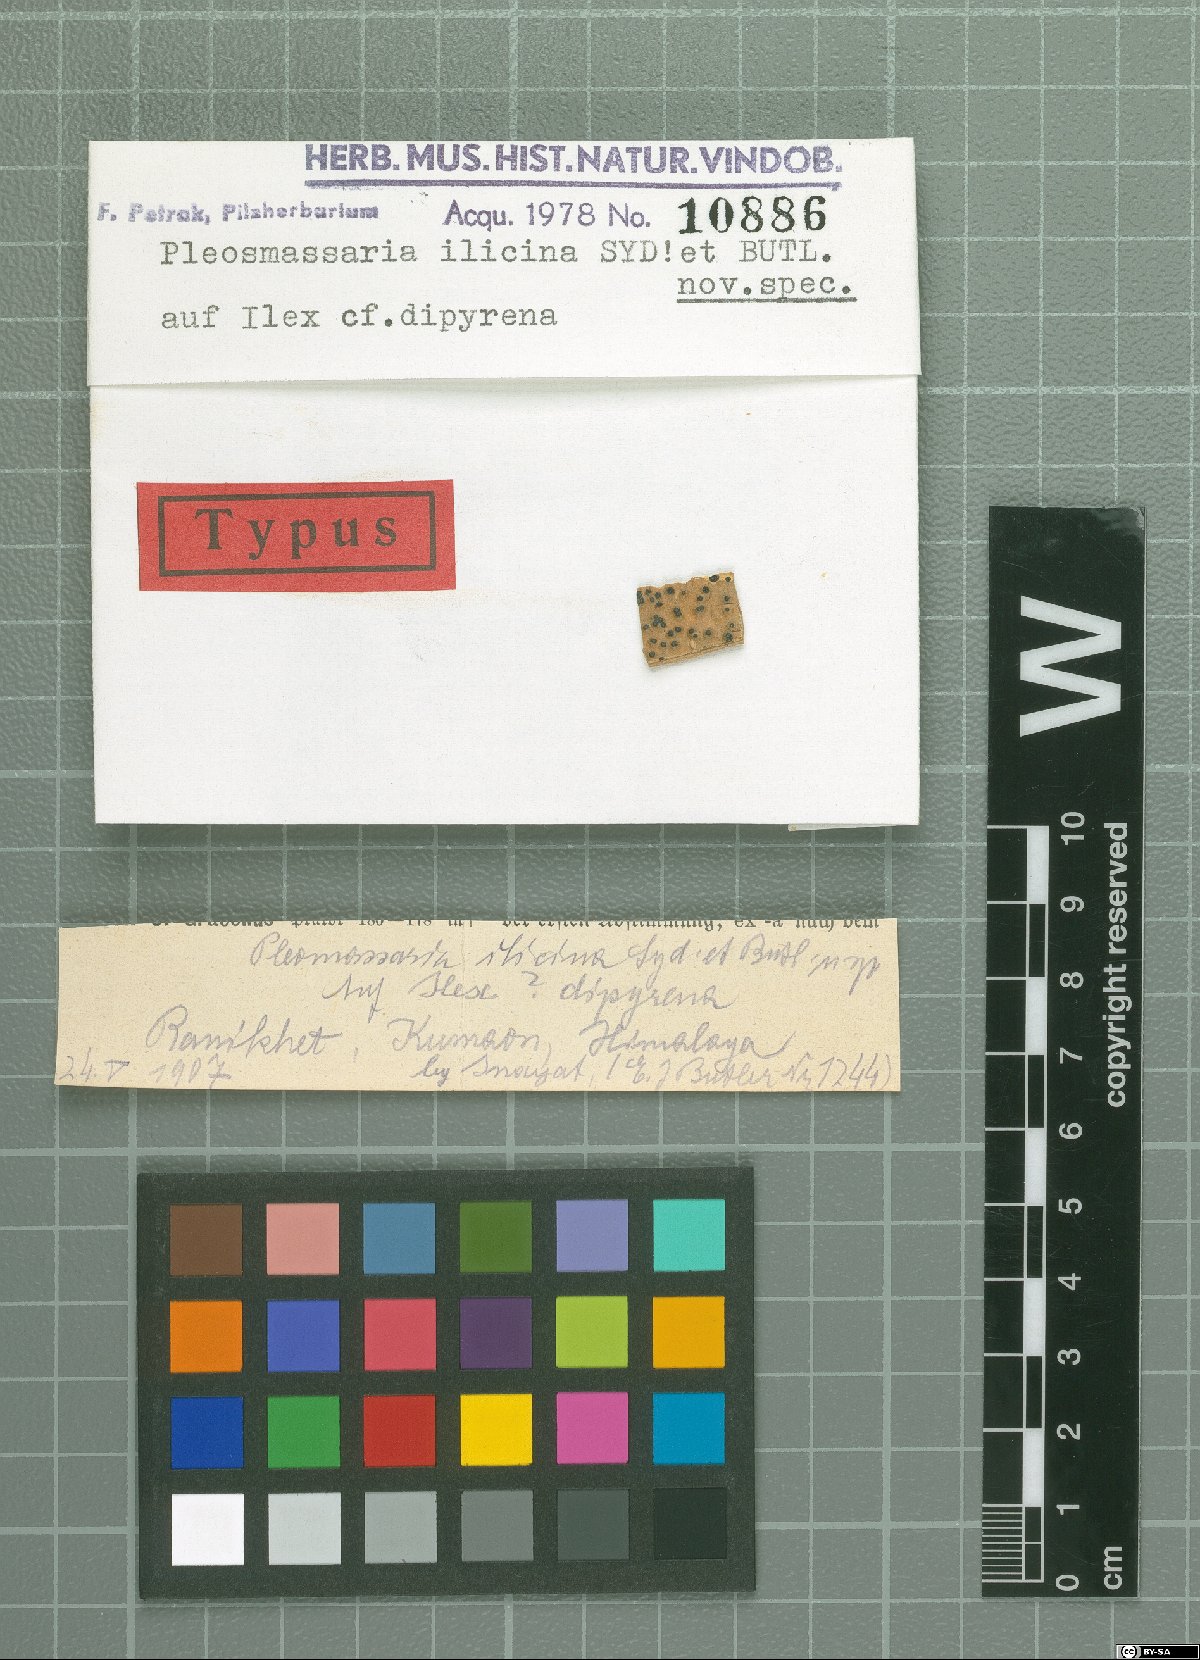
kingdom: Fungi
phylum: Ascomycota
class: Dothideomycetes
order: Pleosporales
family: Pleomassariaceae
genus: Pleomassaria
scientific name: Pleomassaria
